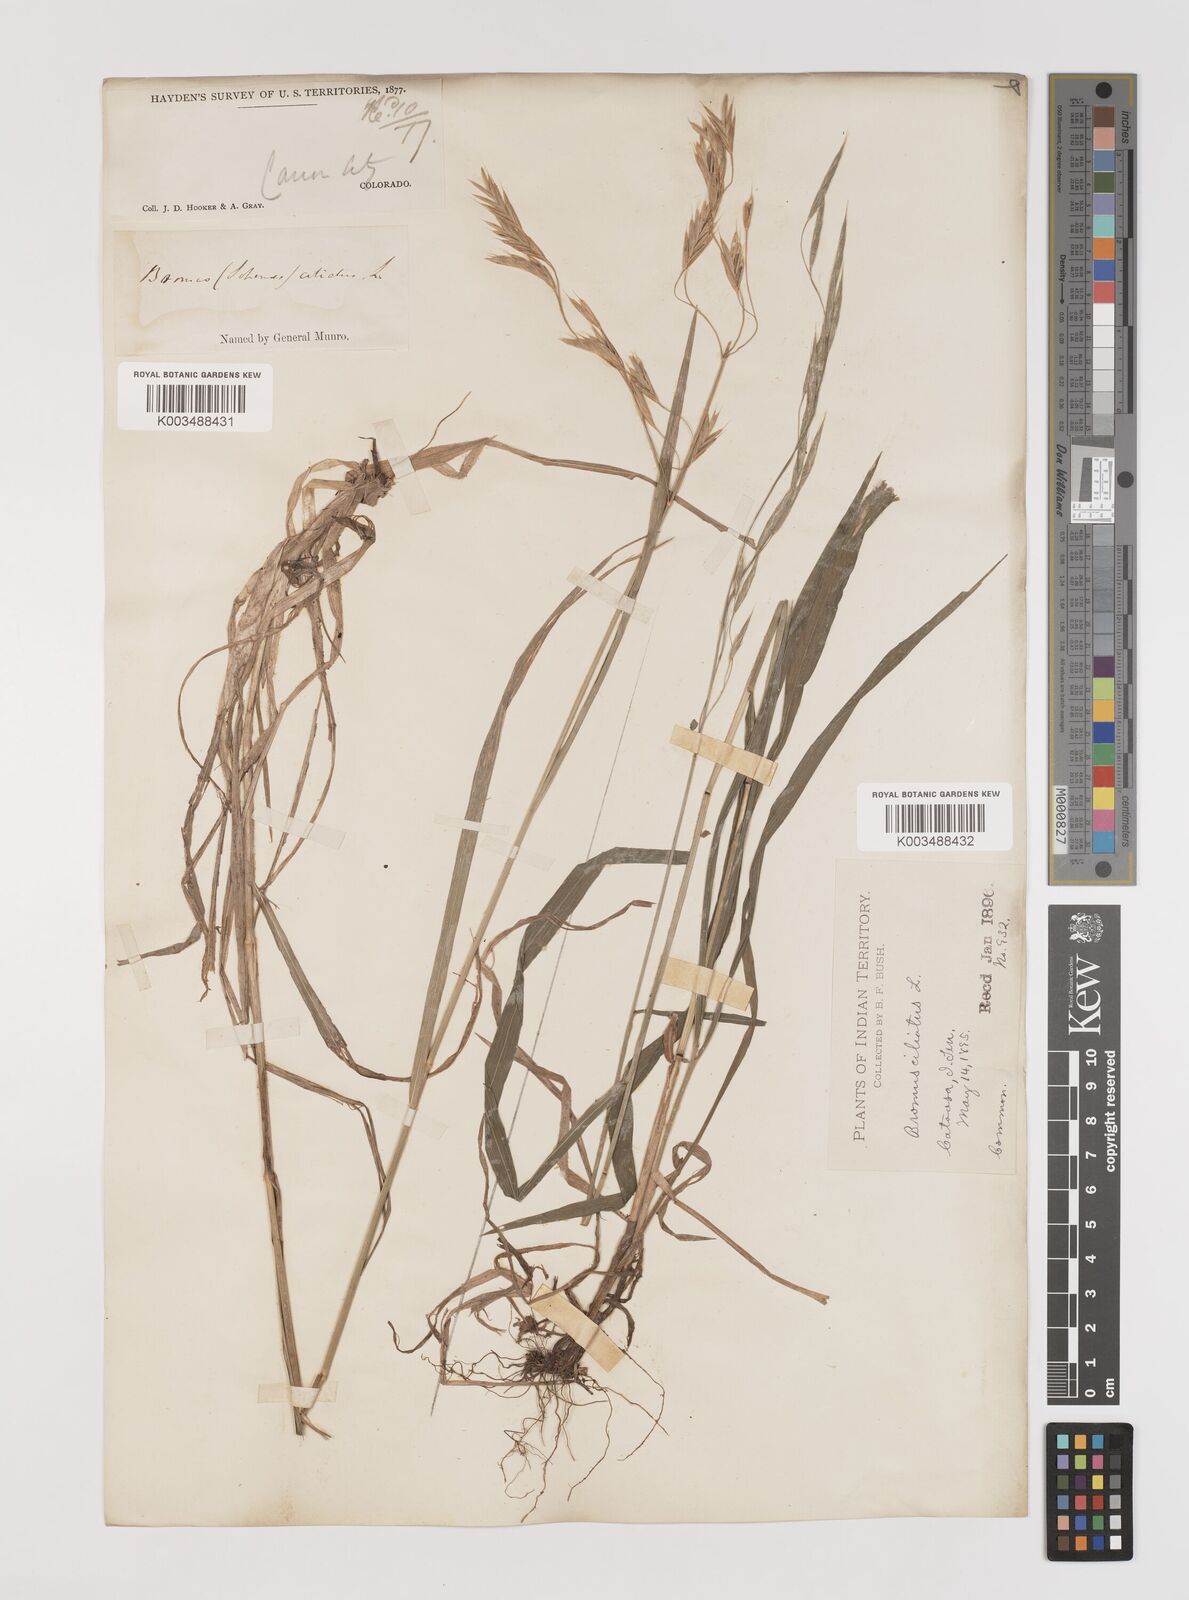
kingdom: Plantae
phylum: Tracheophyta
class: Liliopsida
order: Poales
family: Poaceae
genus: Bromus
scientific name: Bromus ciliatus
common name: Fringe brome
